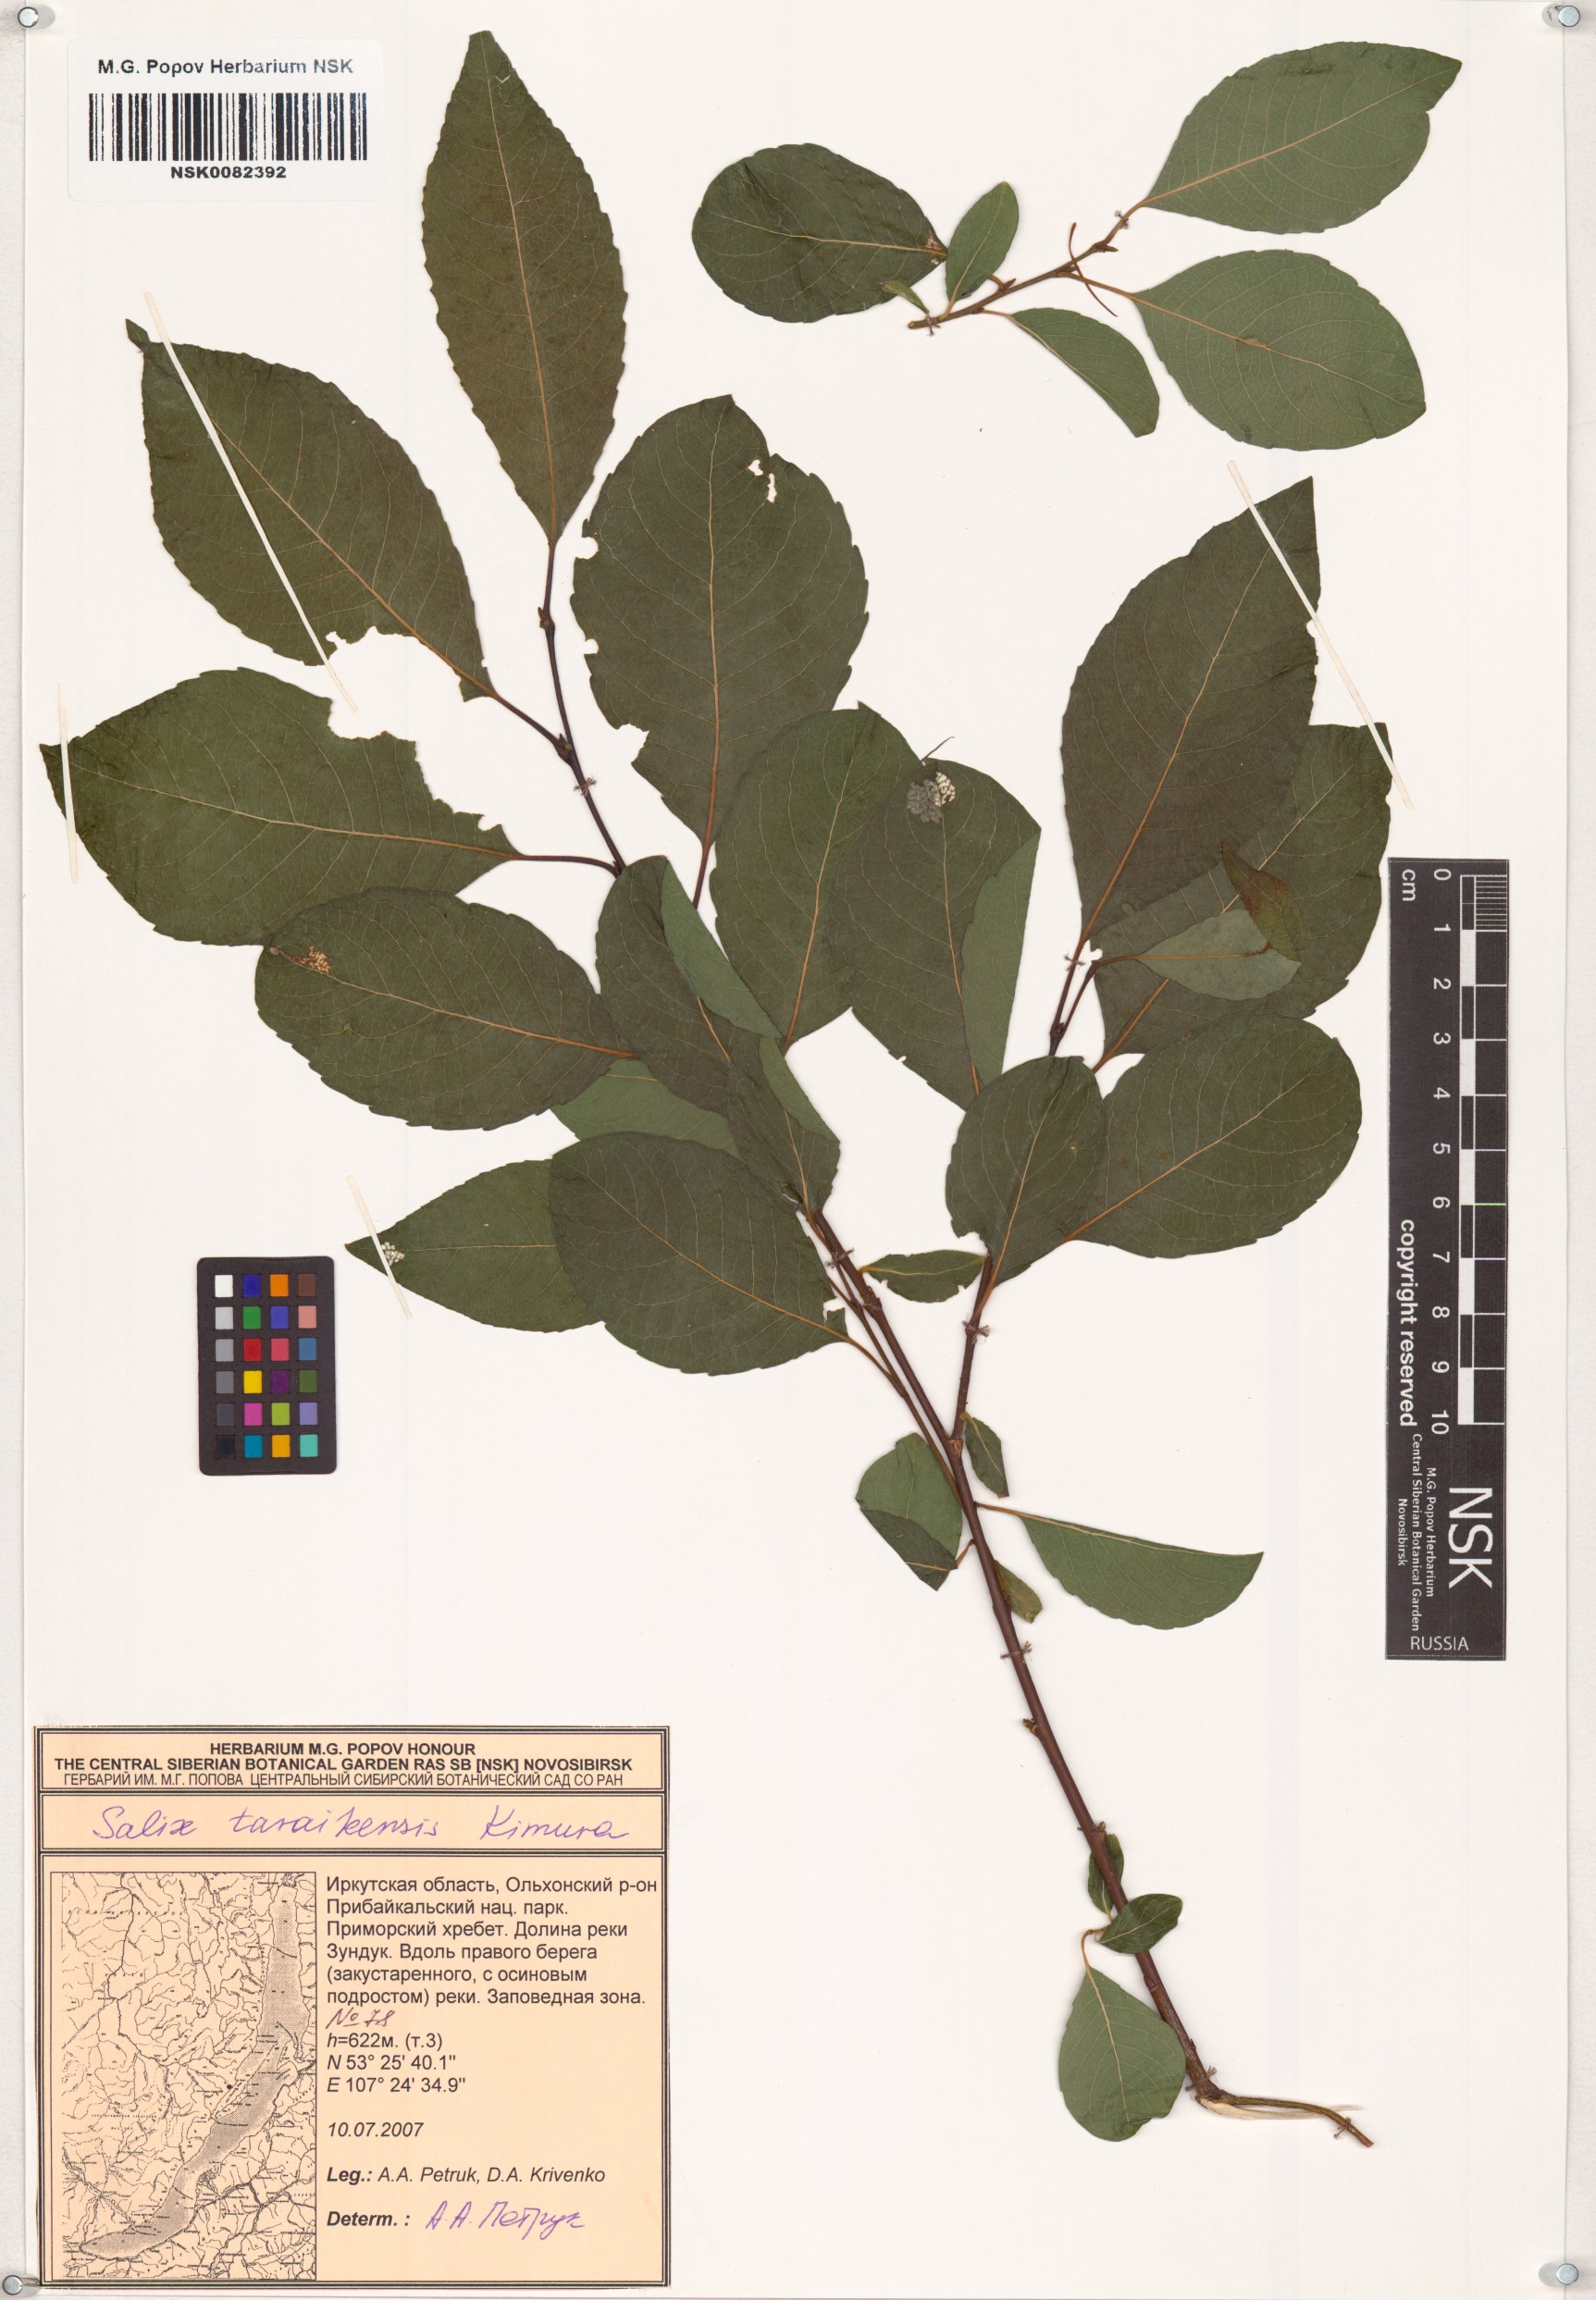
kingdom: Plantae
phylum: Tracheophyta
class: Magnoliopsida
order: Malpighiales
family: Salicaceae
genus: Salix
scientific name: Salix taraikensis
